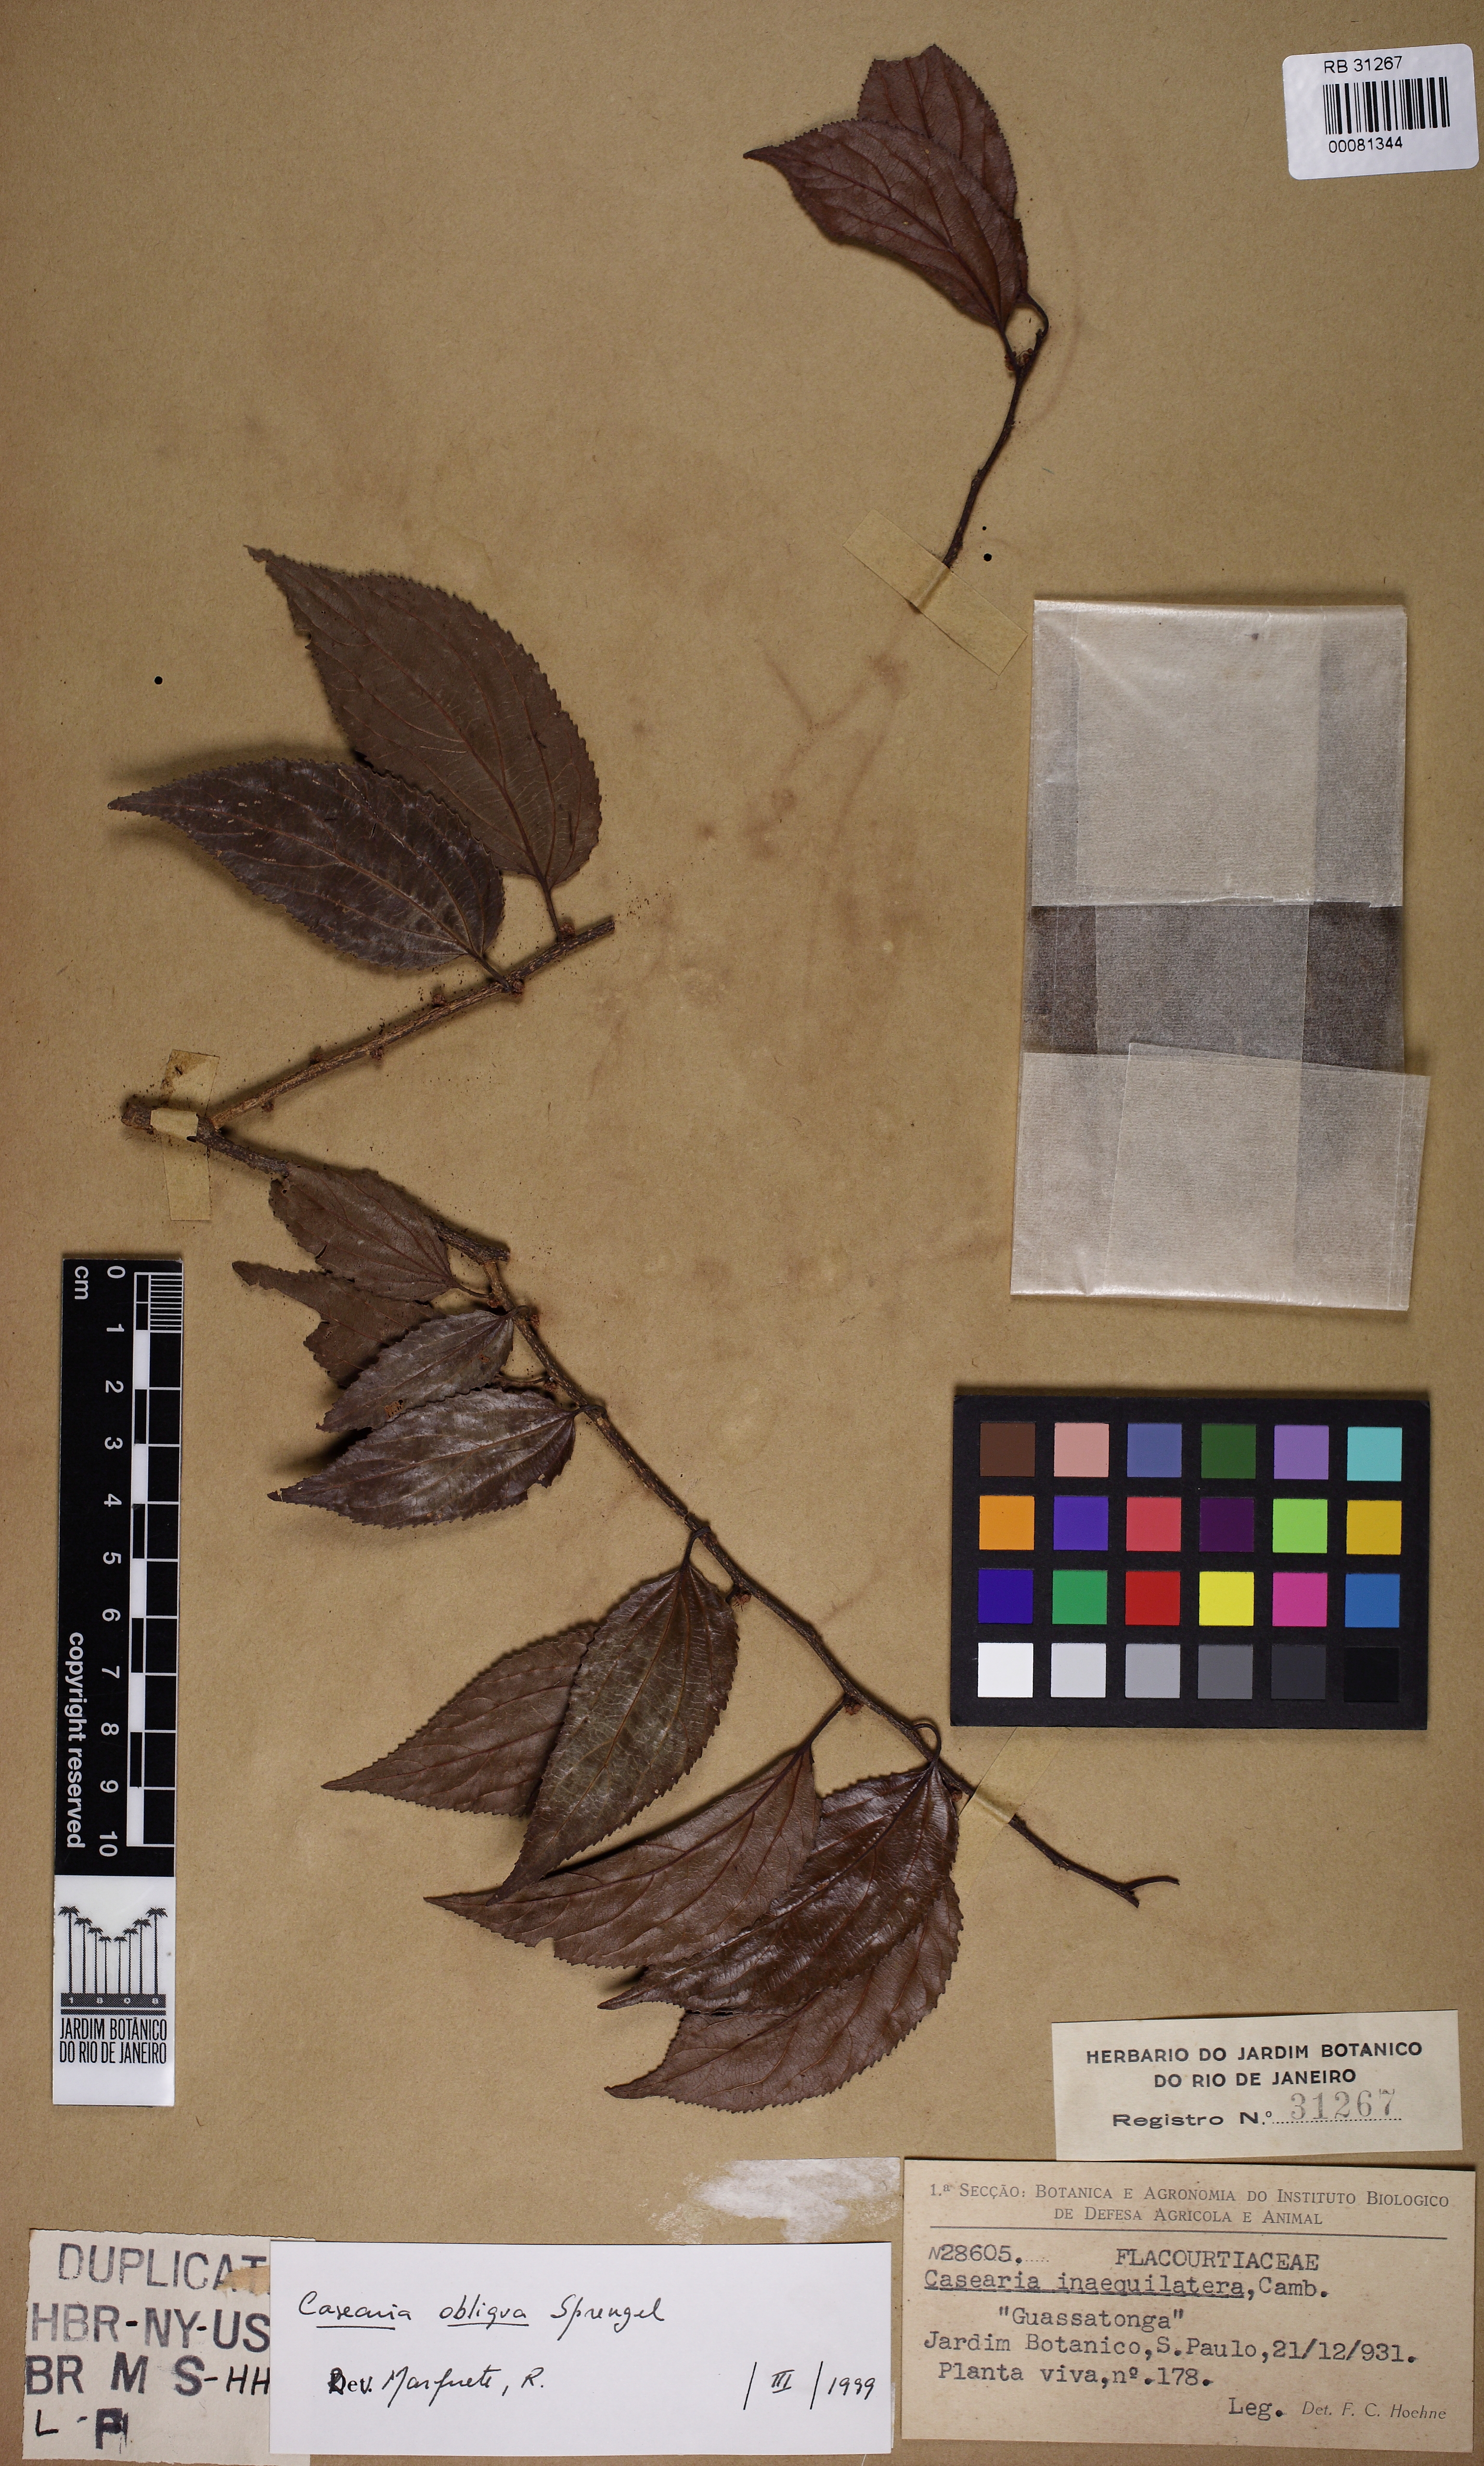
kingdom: Plantae
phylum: Tracheophyta
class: Magnoliopsida
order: Malpighiales
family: Salicaceae
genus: Casearia
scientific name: Casearia obliqua
